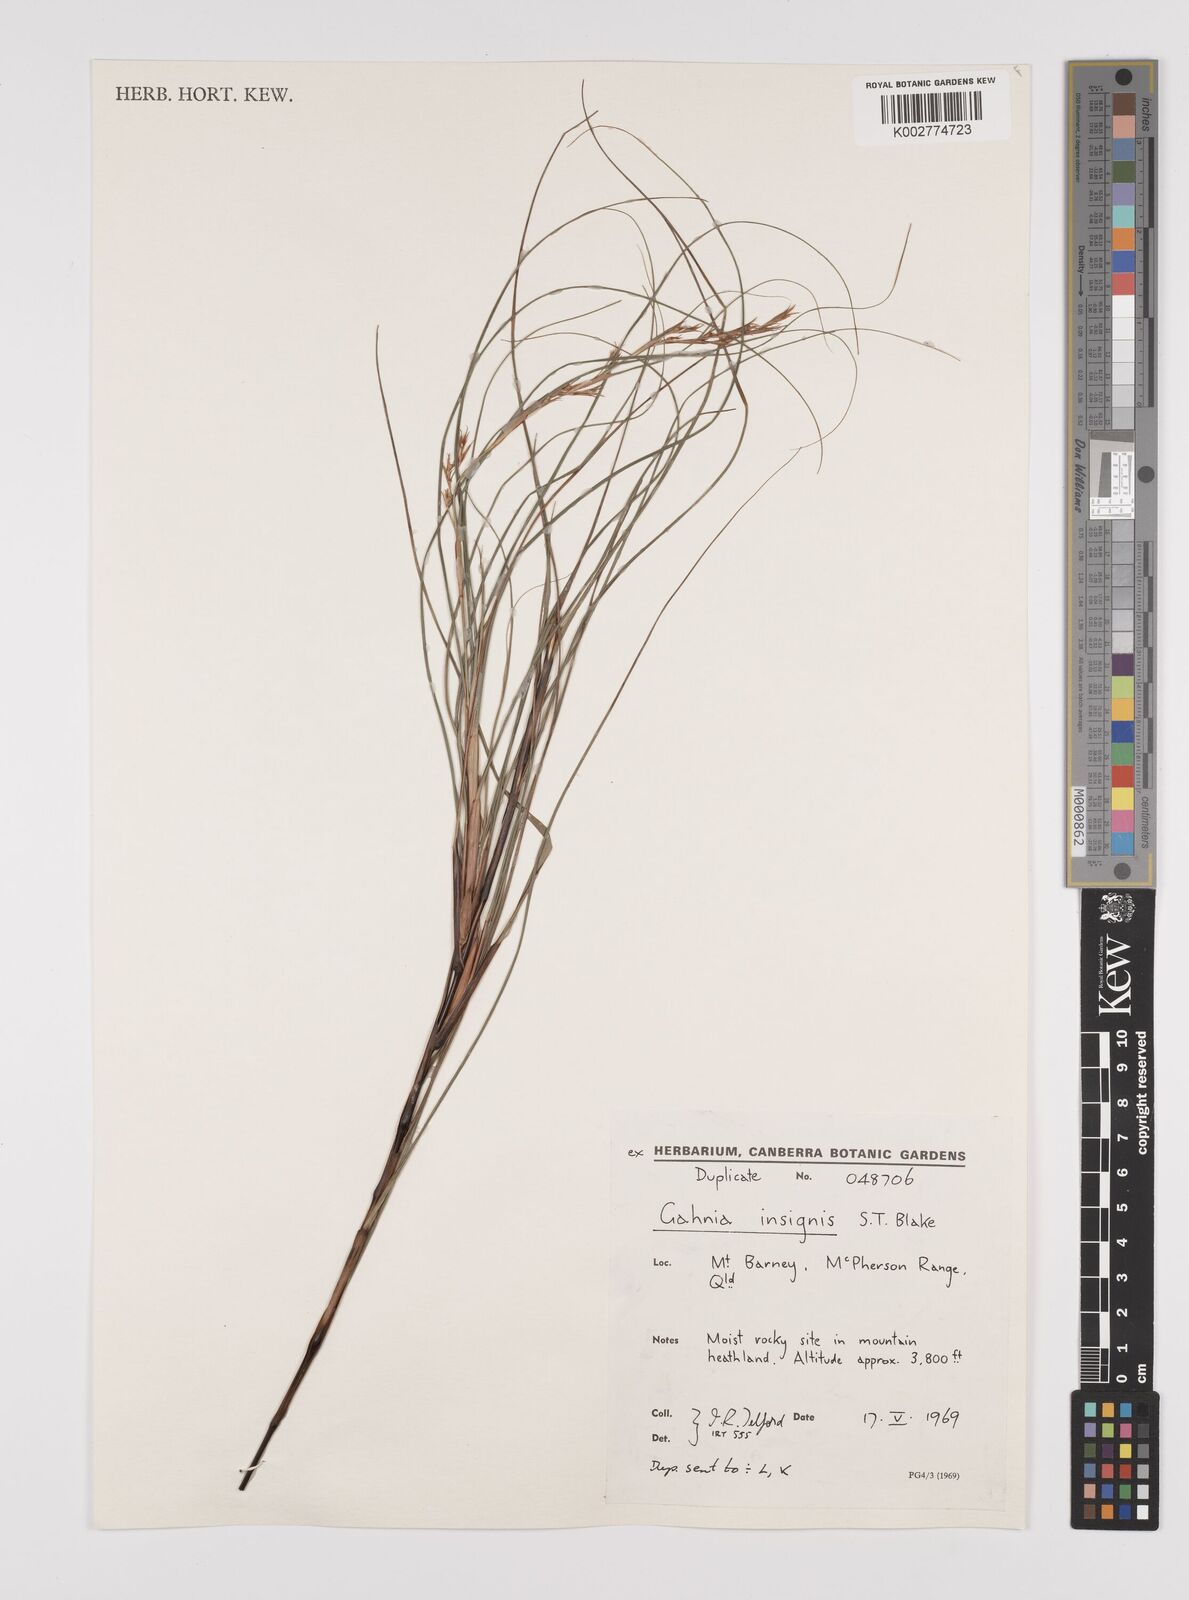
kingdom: Plantae
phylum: Tracheophyta
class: Liliopsida
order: Poales
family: Cyperaceae
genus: Gahnia
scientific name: Gahnia insignis
